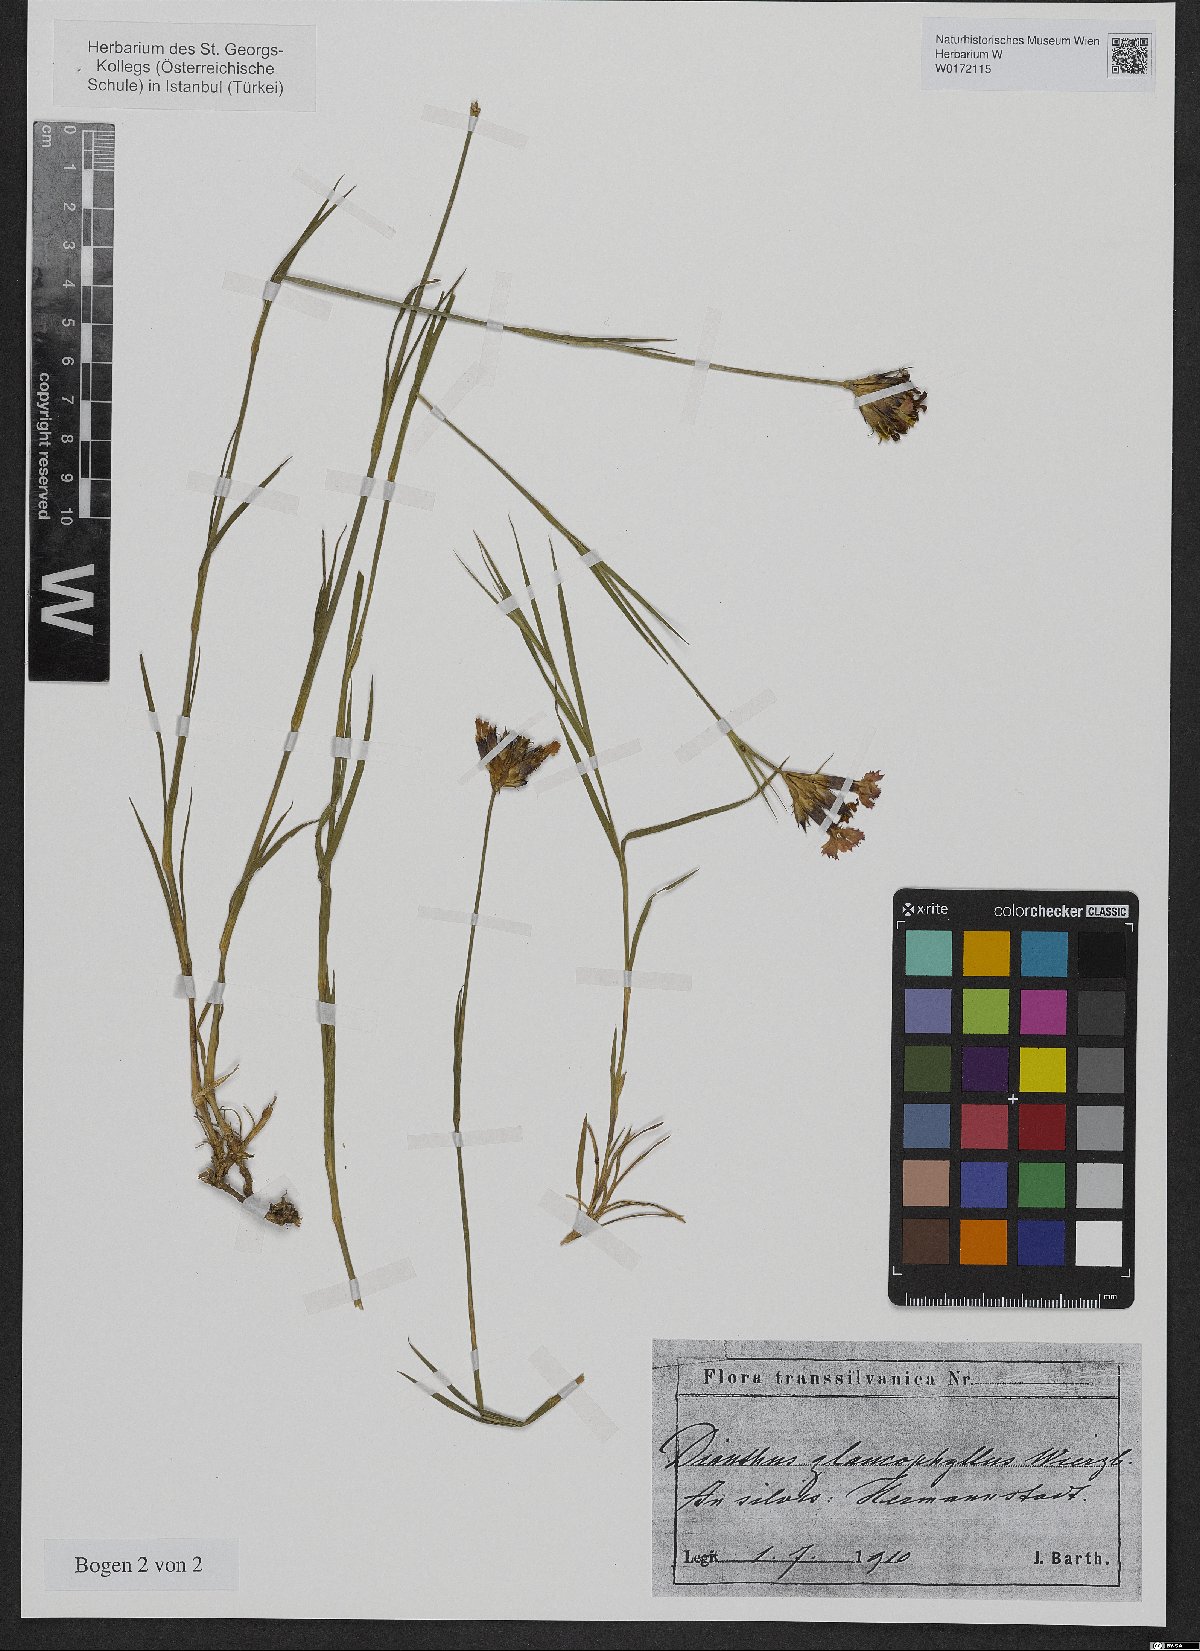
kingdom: Plantae
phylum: Tracheophyta
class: Magnoliopsida
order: Caryophyllales
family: Caryophyllaceae
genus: Dianthus
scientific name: Dianthus balbisii
